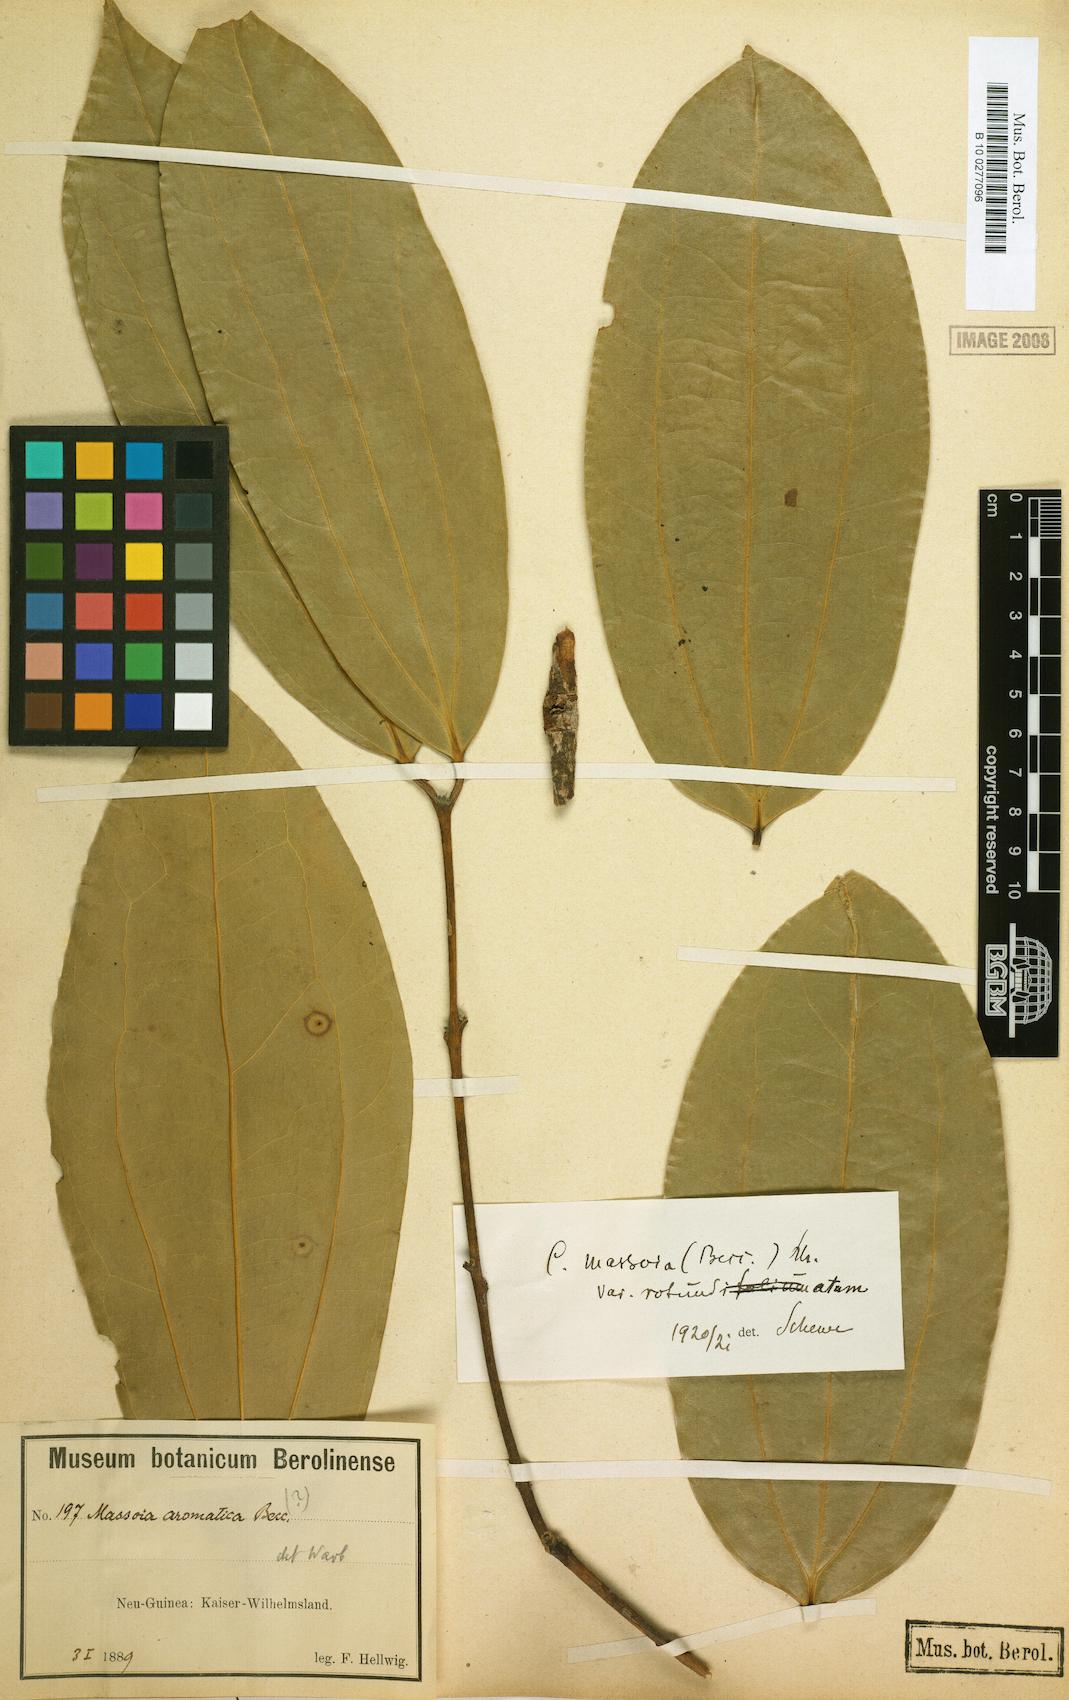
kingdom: Plantae
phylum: Tracheophyta
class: Magnoliopsida
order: Laurales
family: Lauraceae
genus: Cinnamomum
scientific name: Cinnamomum grandiflorum
